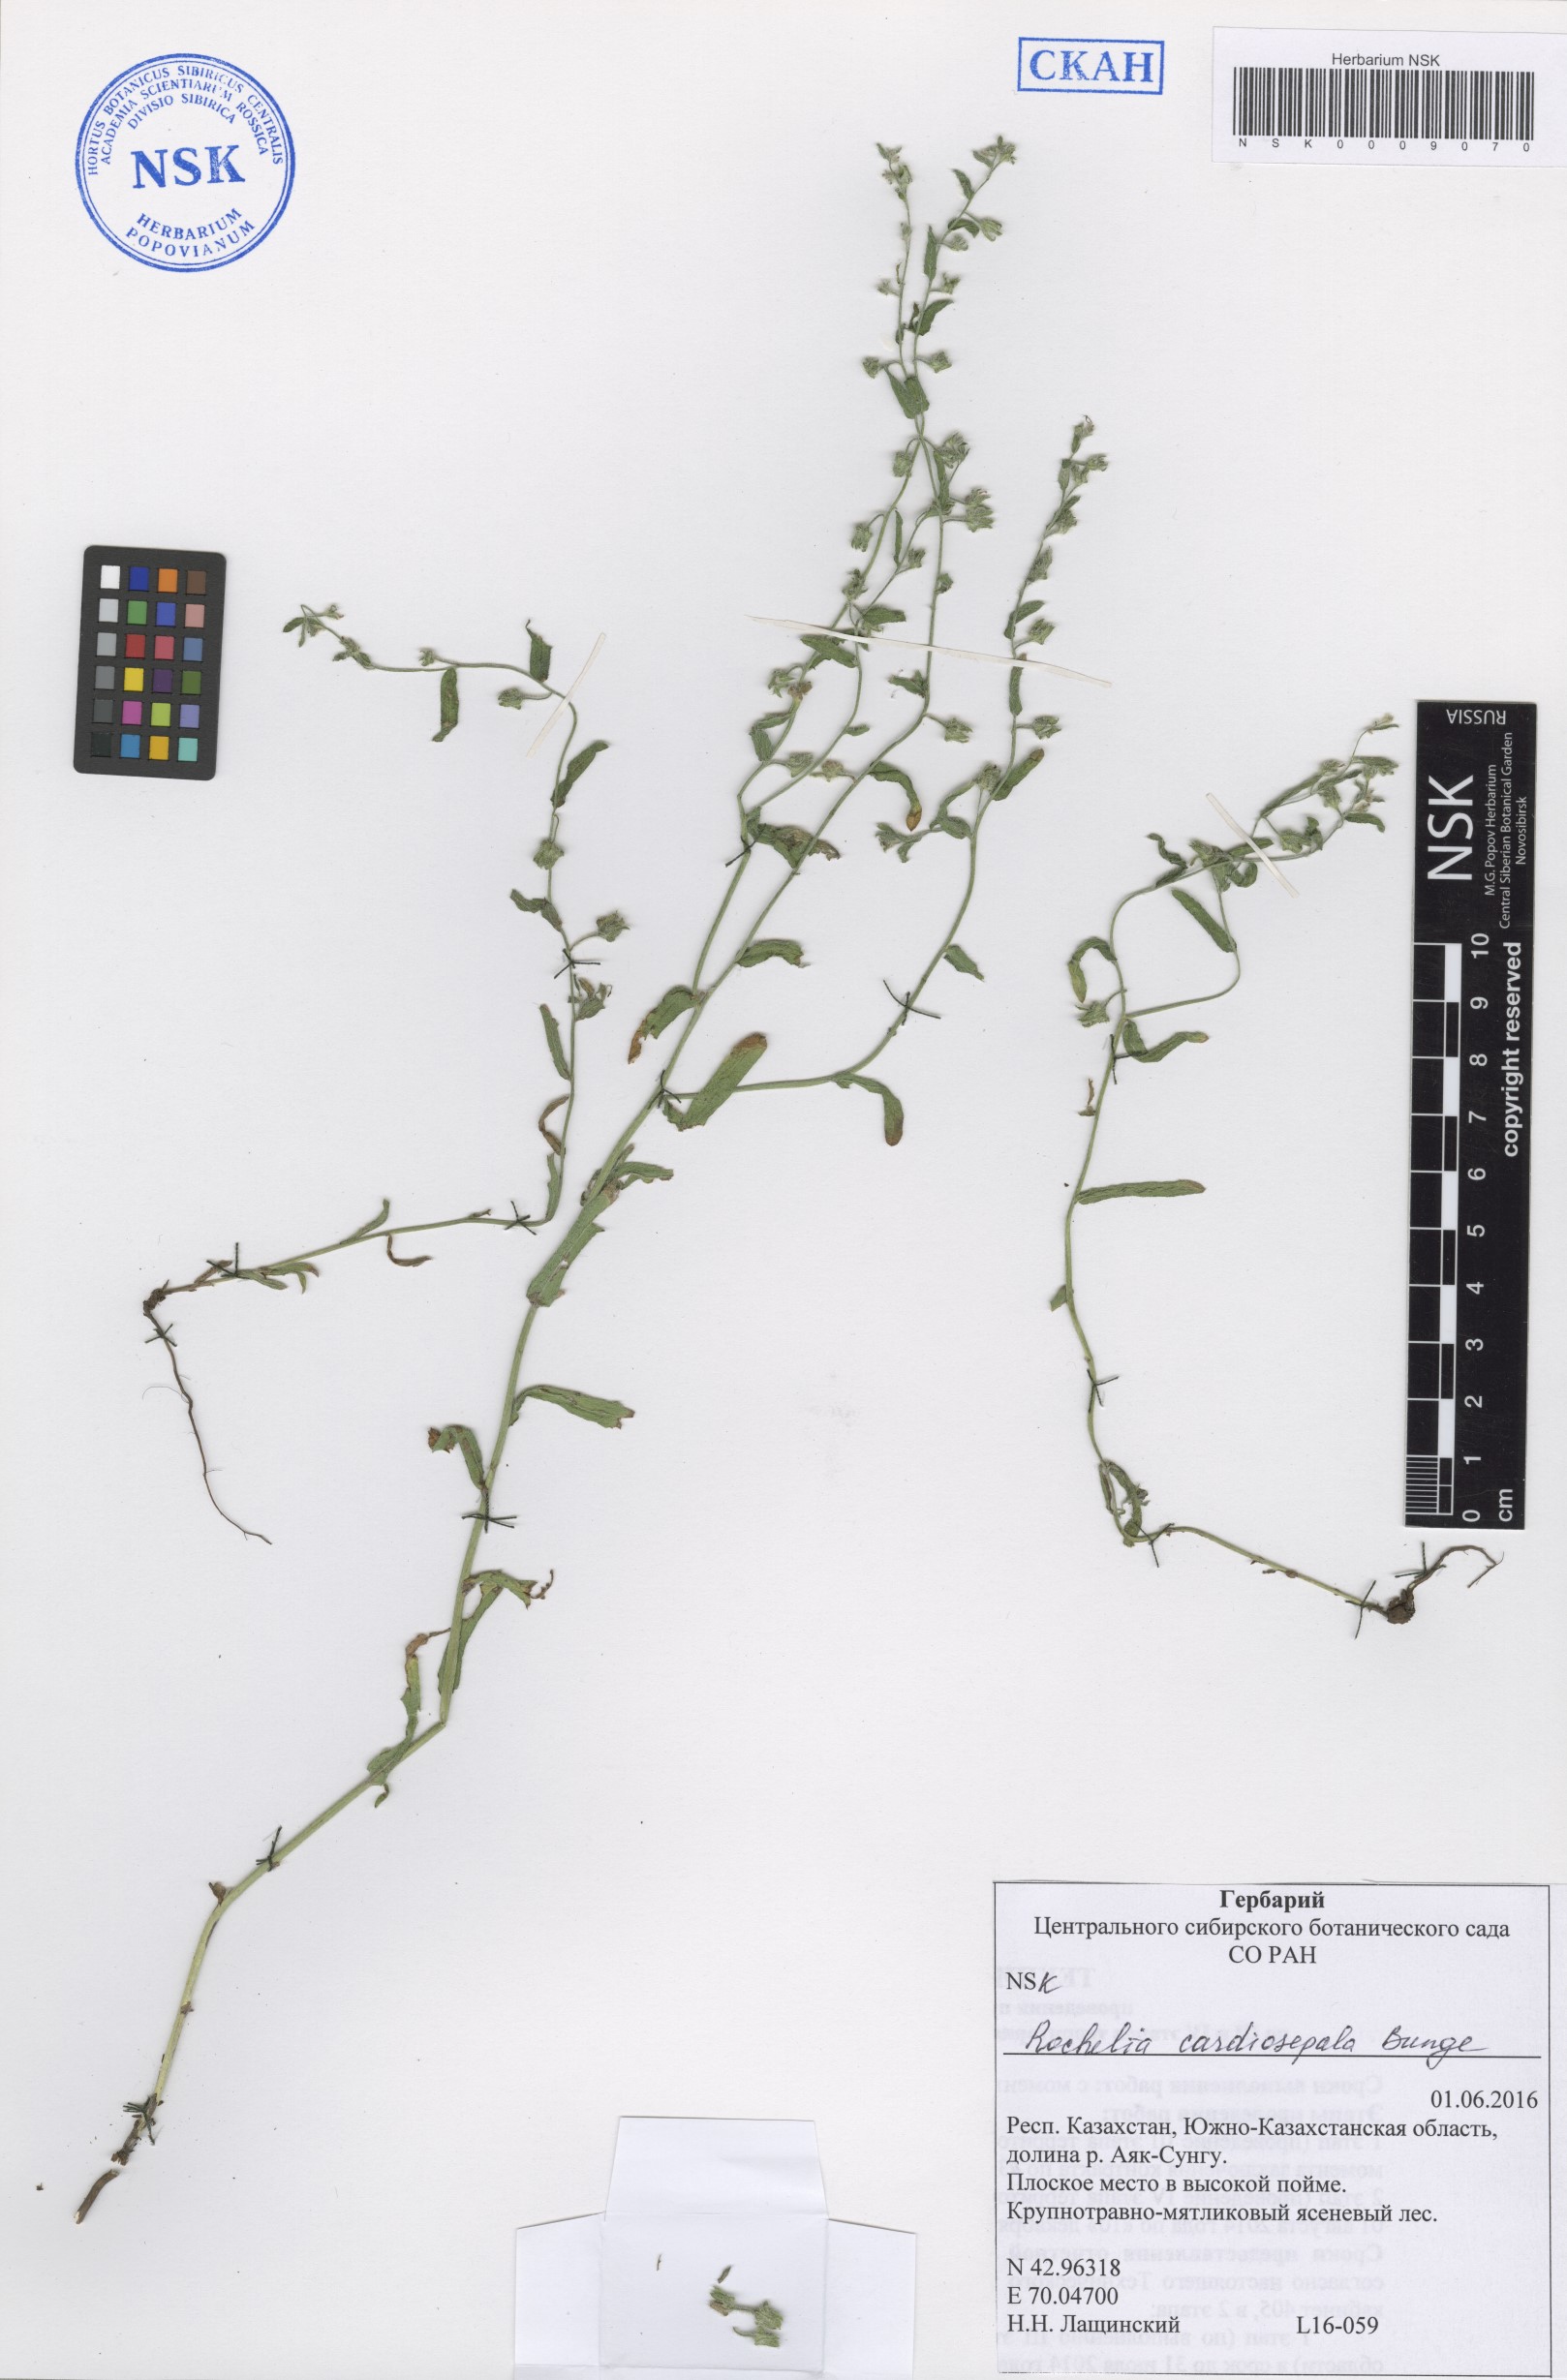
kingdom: Plantae
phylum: Tracheophyta
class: Magnoliopsida
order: Boraginales
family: Boraginaceae
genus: Rochelia
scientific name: Rochelia cardiosepala
